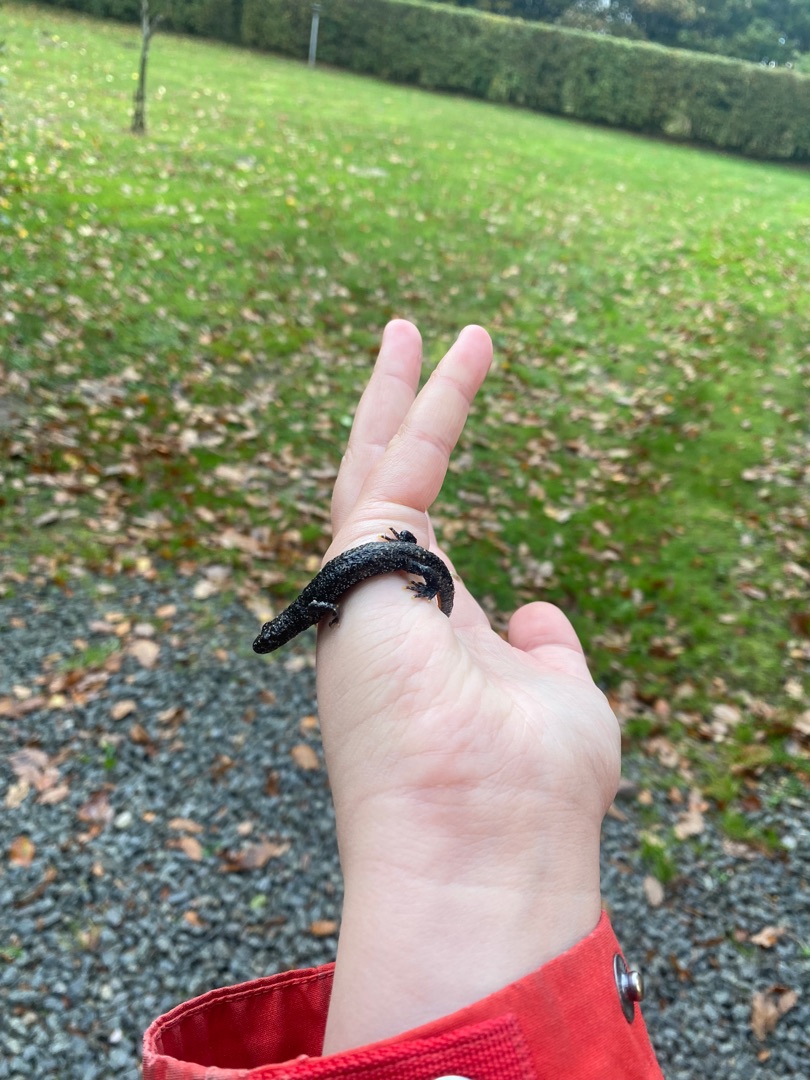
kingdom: Animalia
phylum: Chordata
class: Amphibia
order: Caudata
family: Salamandridae
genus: Triturus
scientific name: Triturus cristatus
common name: Stor vandsalamander
